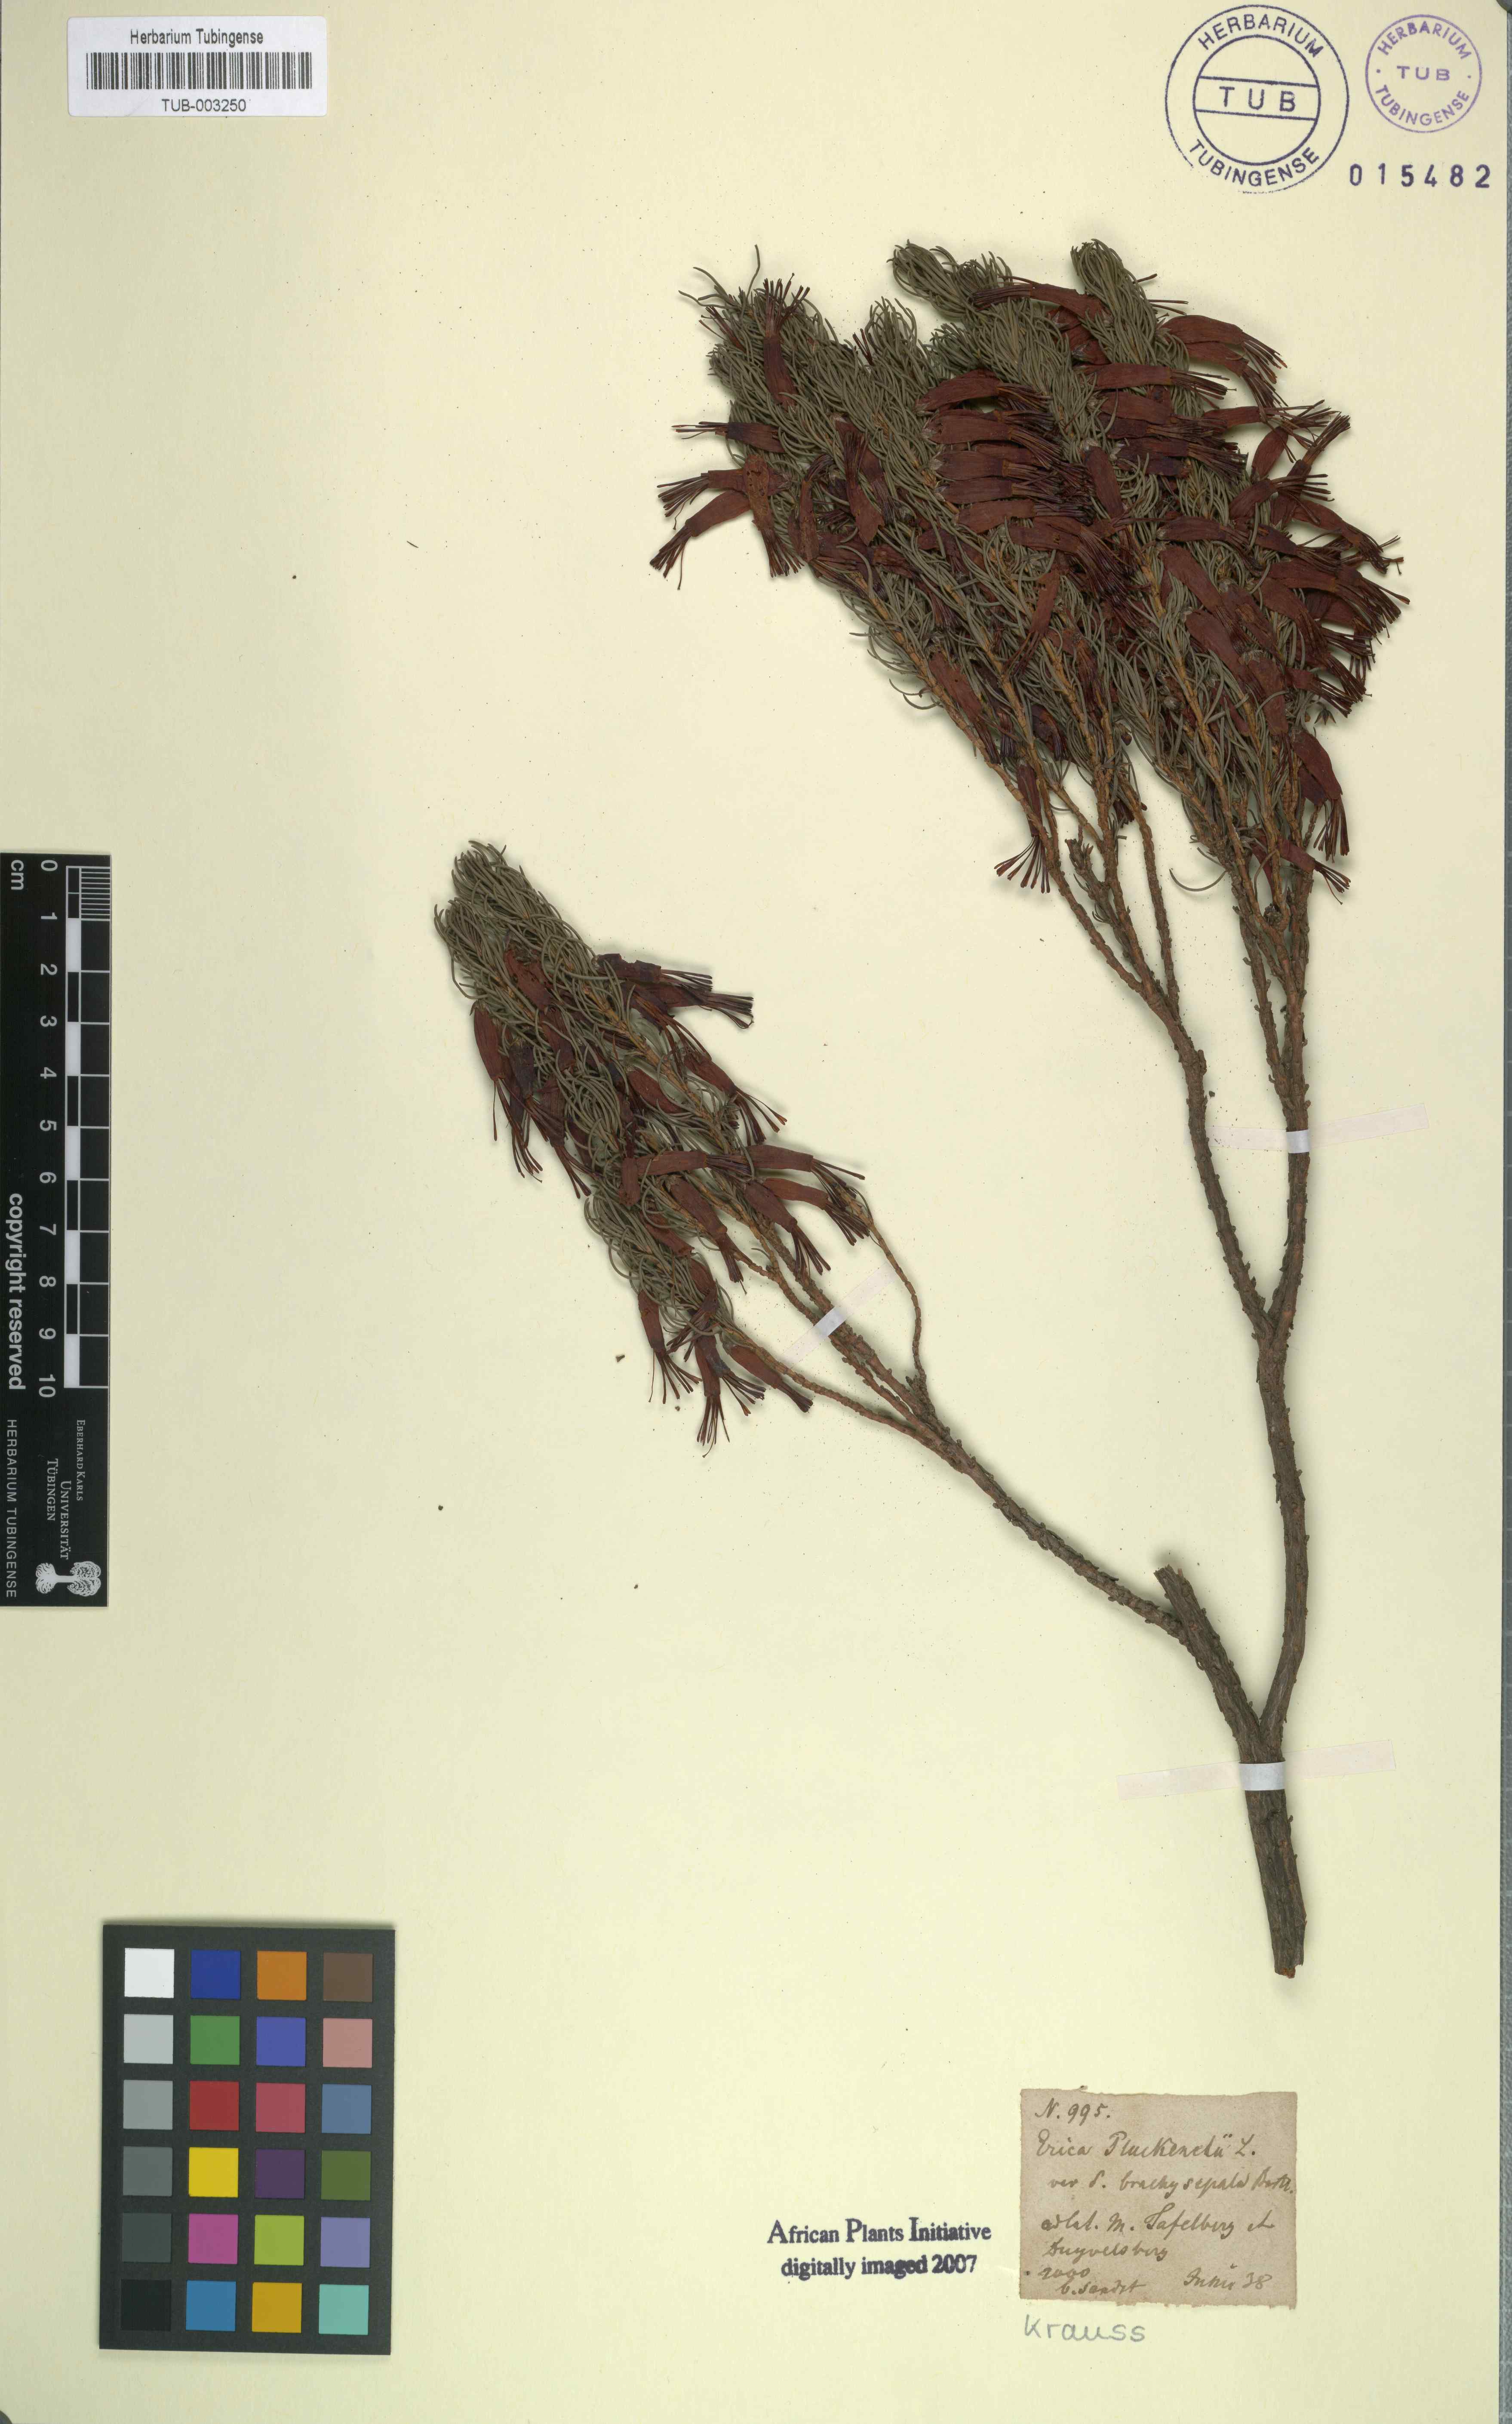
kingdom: Plantae
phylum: Tracheophyta
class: Magnoliopsida
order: Ericales
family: Ericaceae
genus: Erica
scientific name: Erica coccinea
